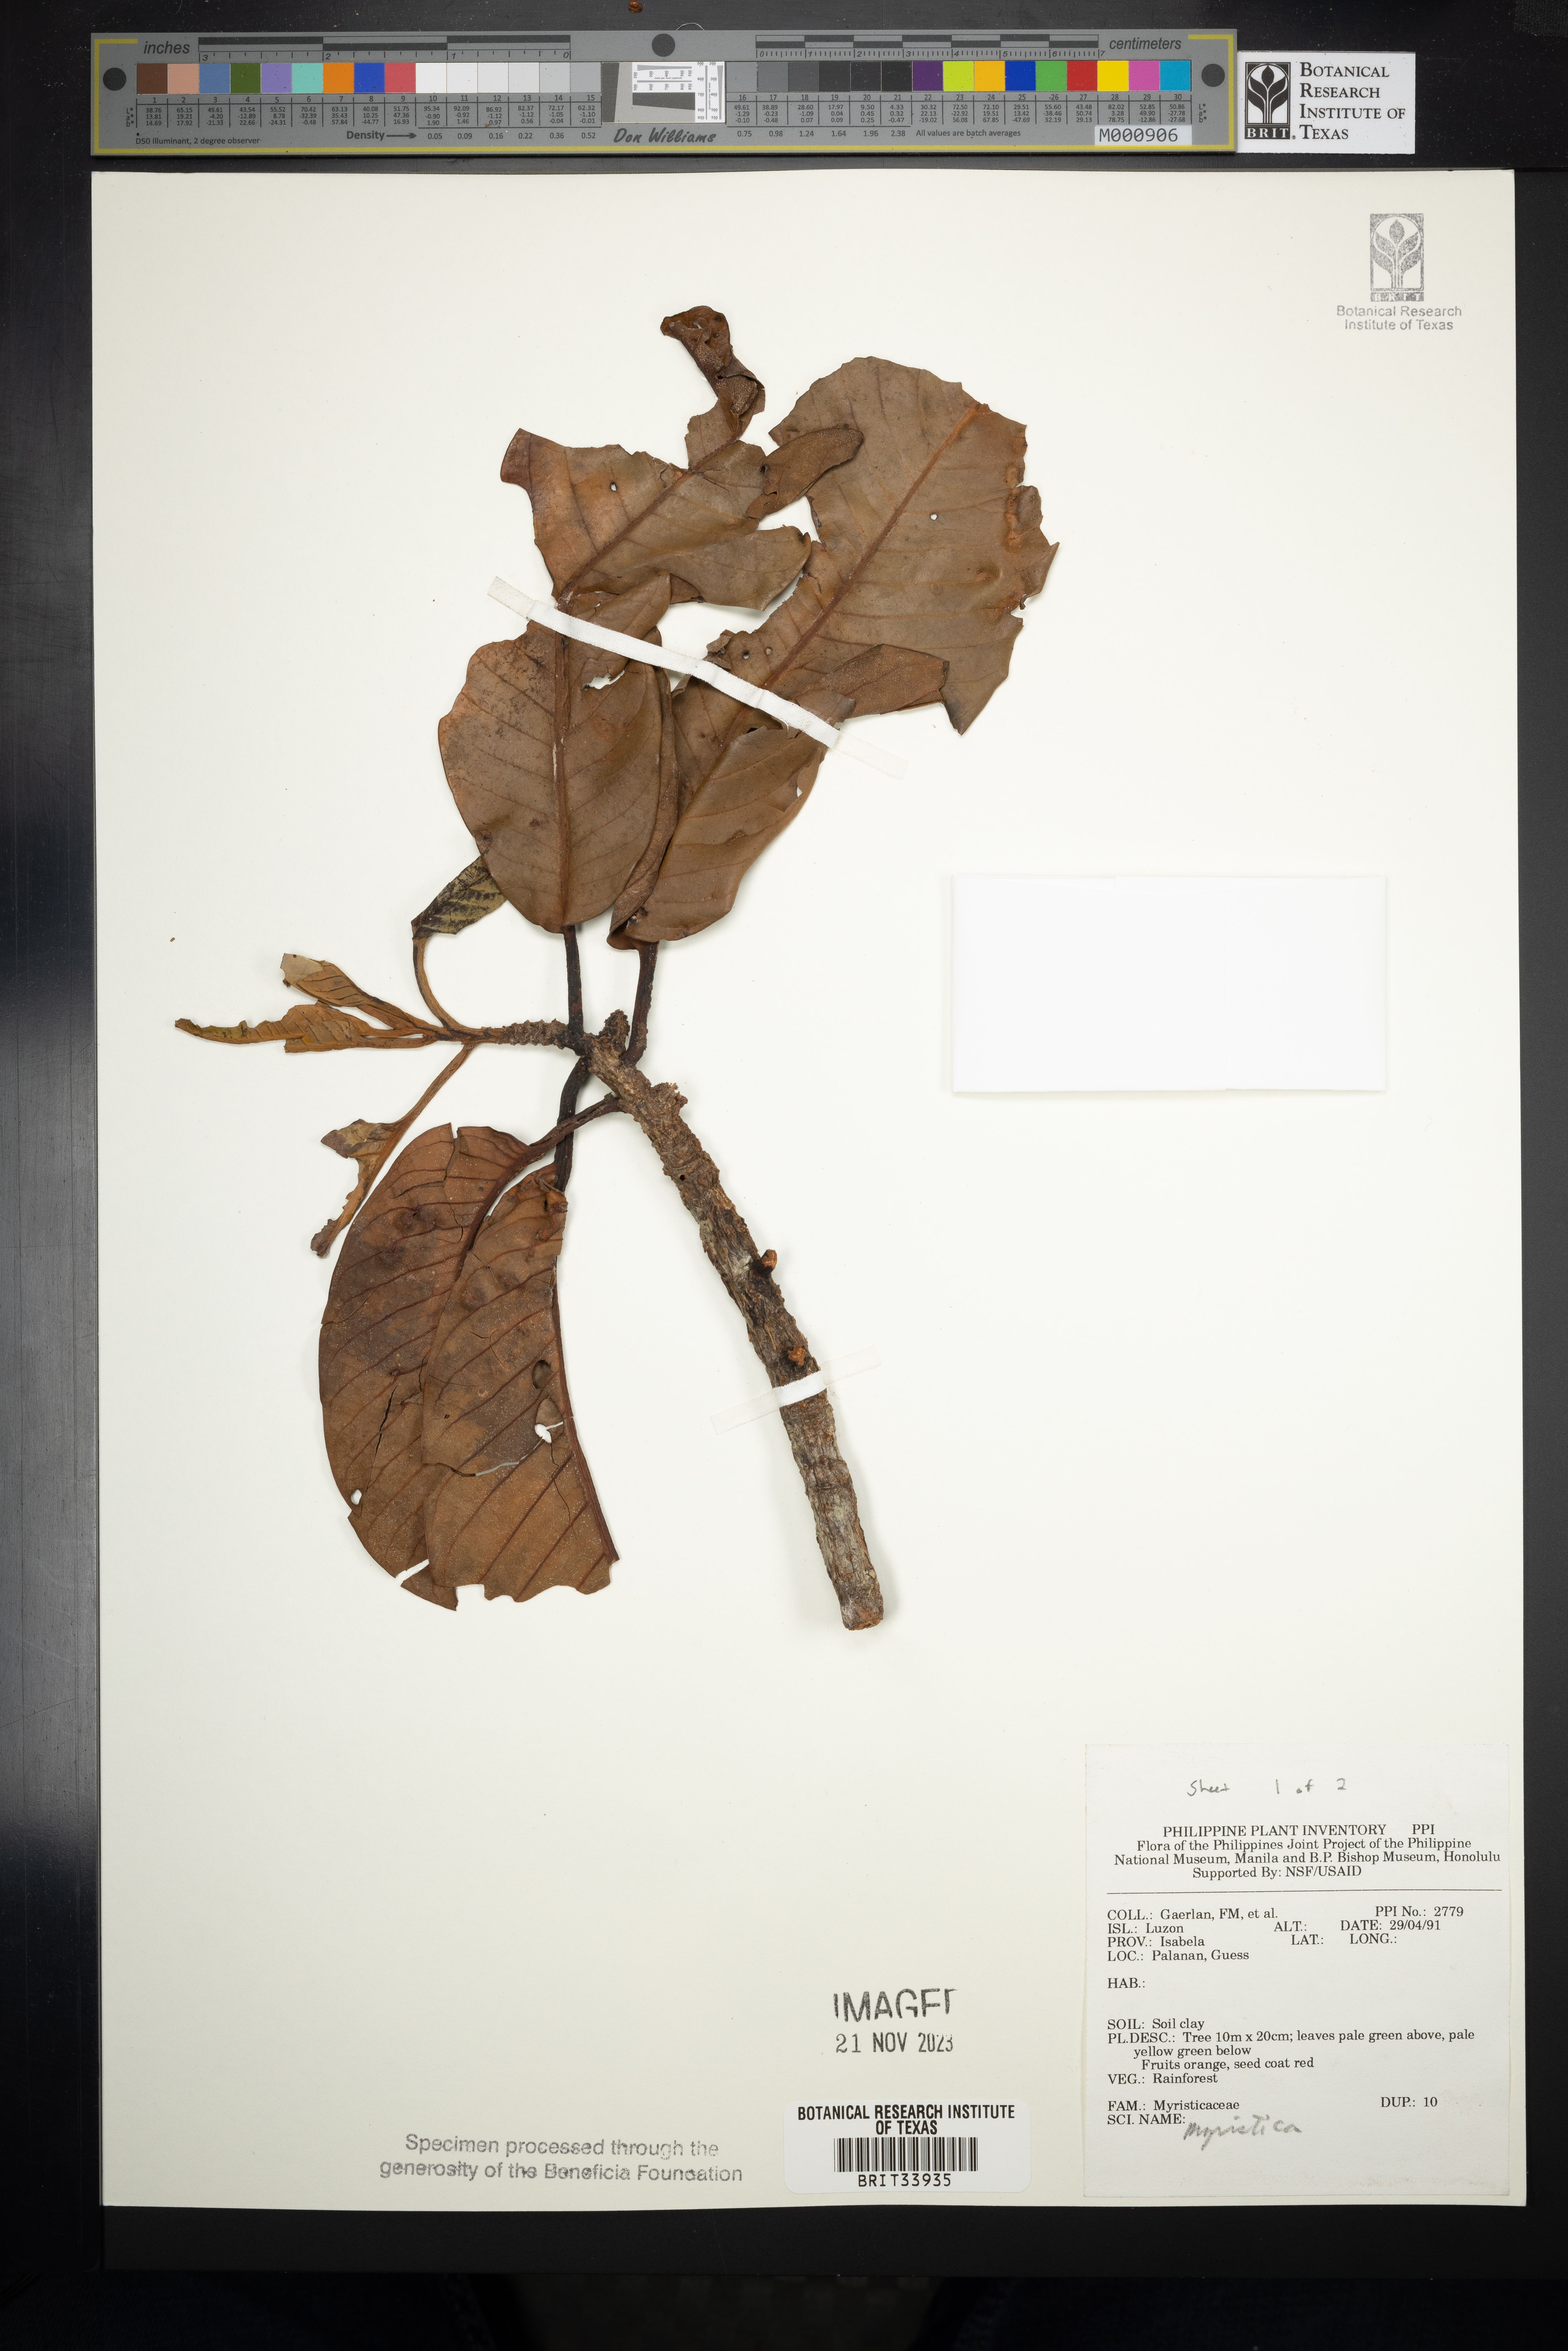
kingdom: Plantae
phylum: Tracheophyta
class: Magnoliopsida
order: Magnoliales
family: Myristicaceae
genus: Myristica
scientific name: Myristica
